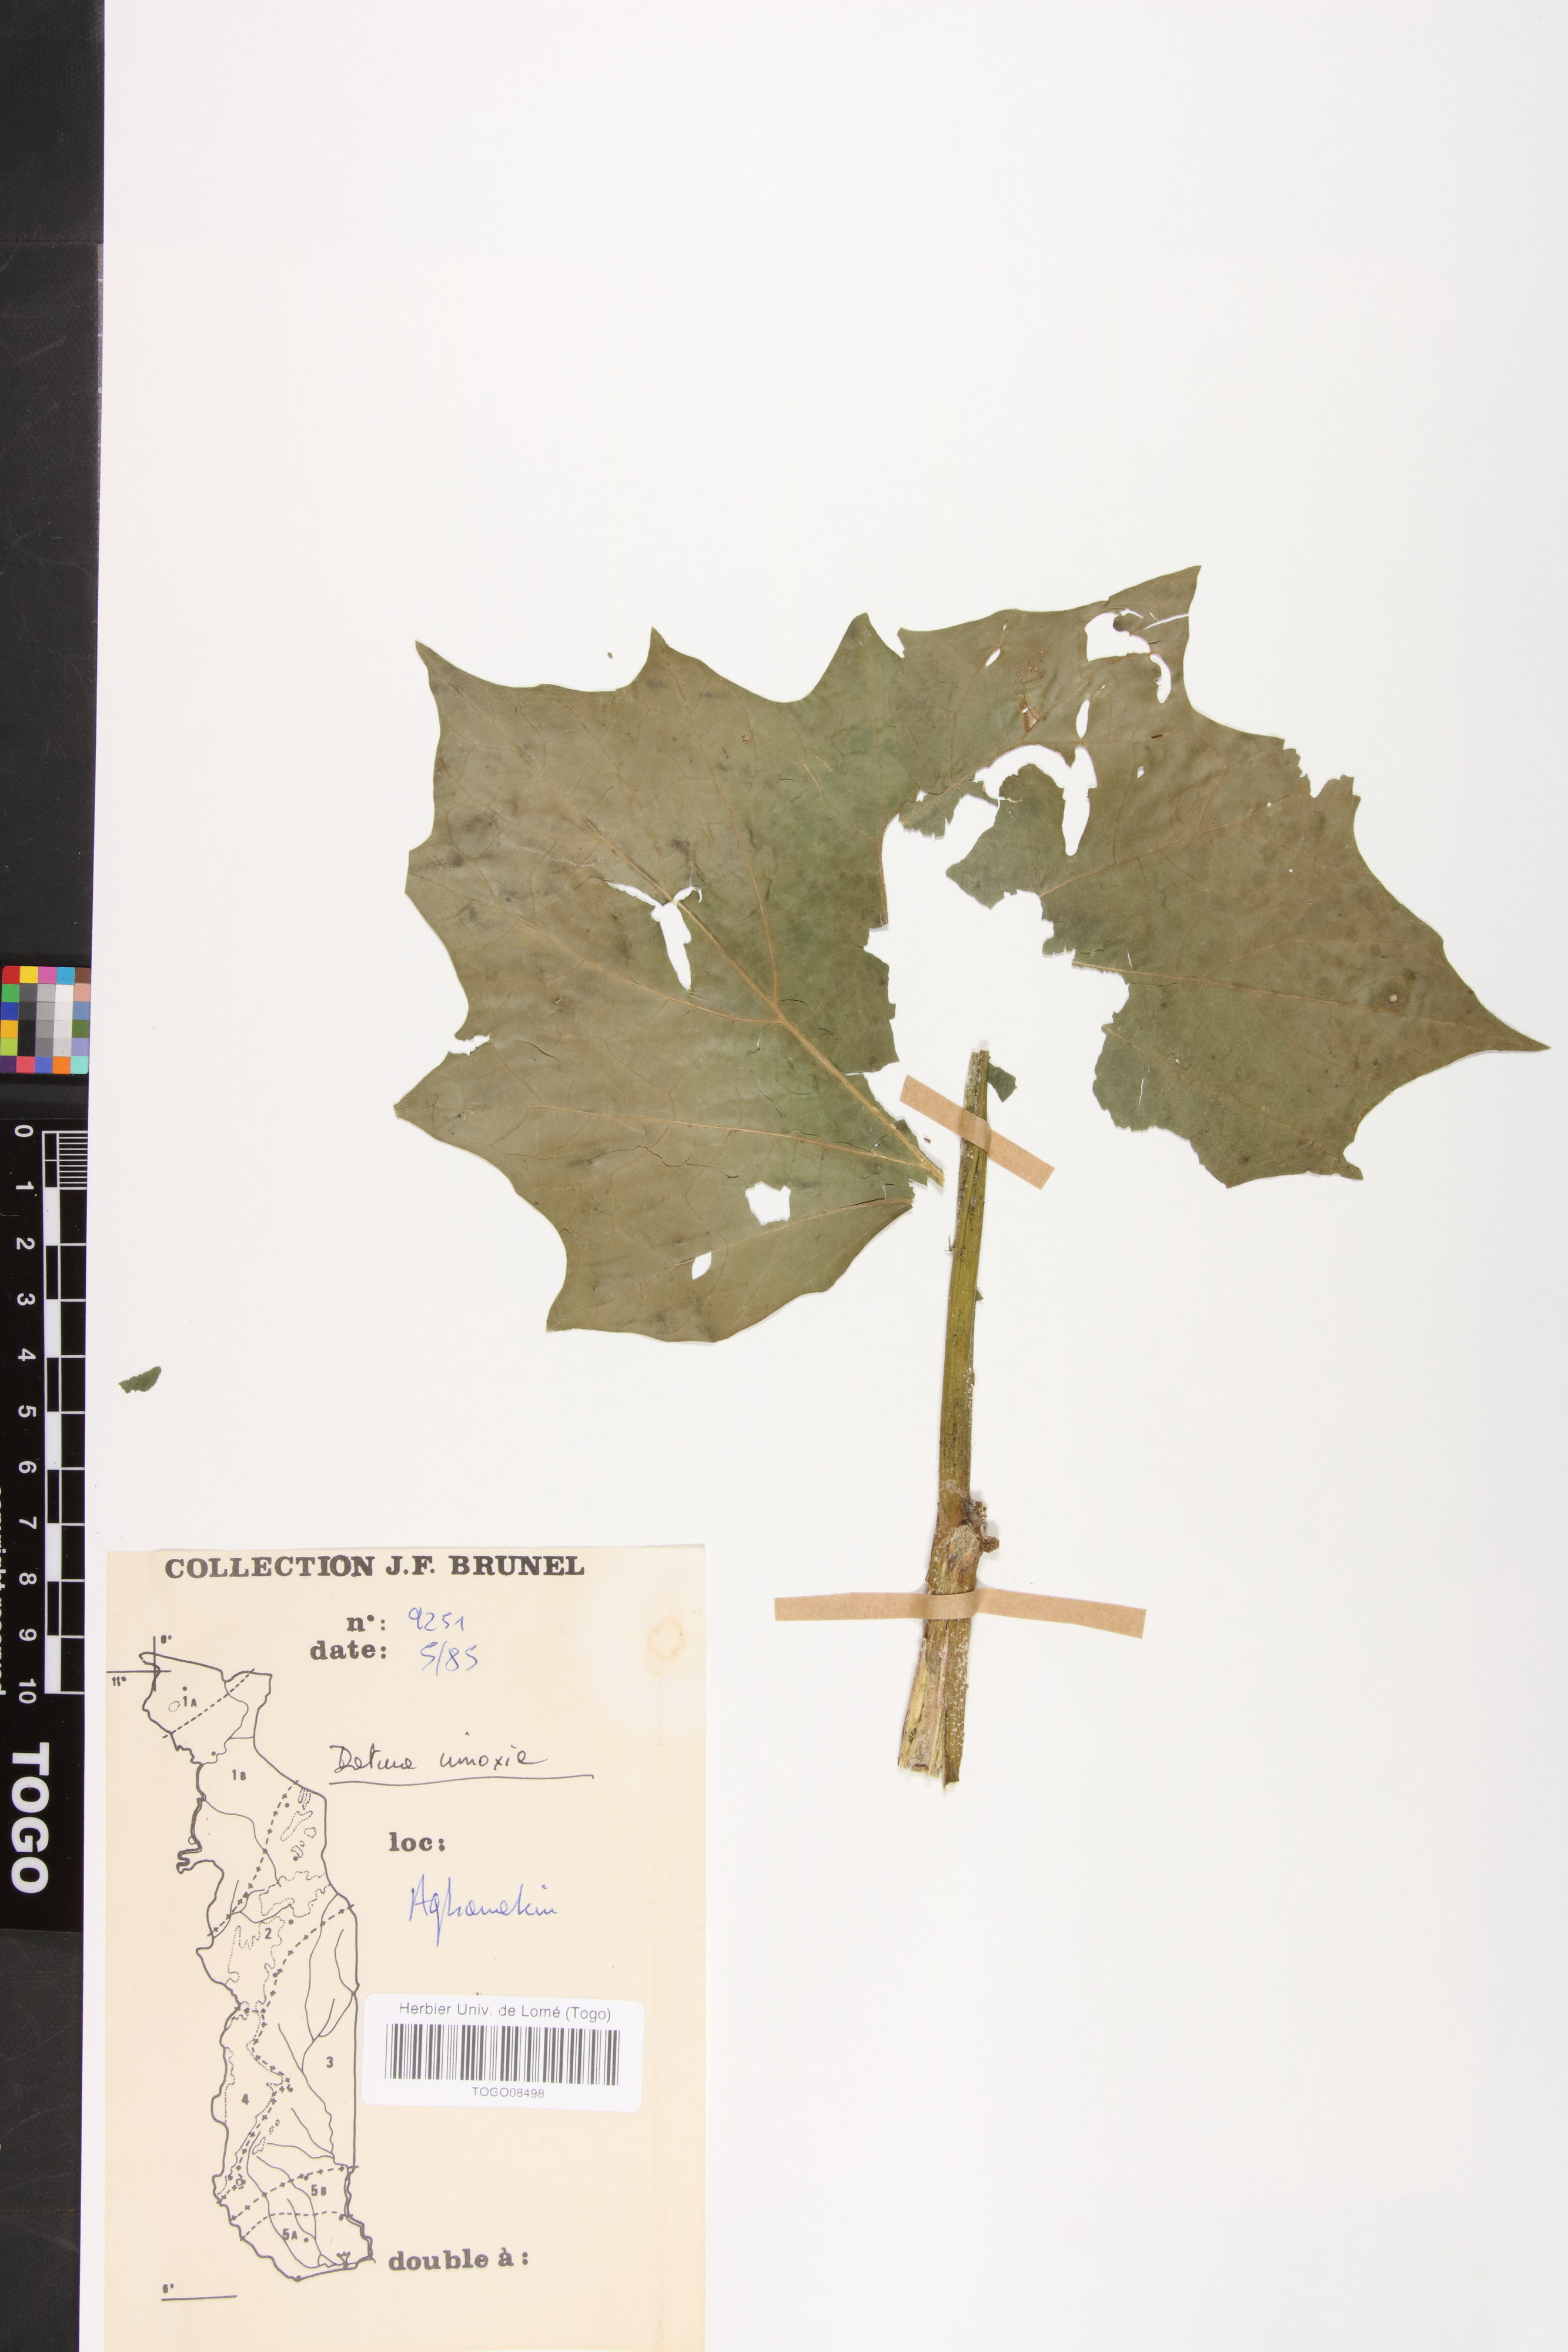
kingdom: Plantae
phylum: Tracheophyta
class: Magnoliopsida
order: Solanales
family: Solanaceae
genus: Datura
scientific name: Datura innoxia
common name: Downy thorn-apple
